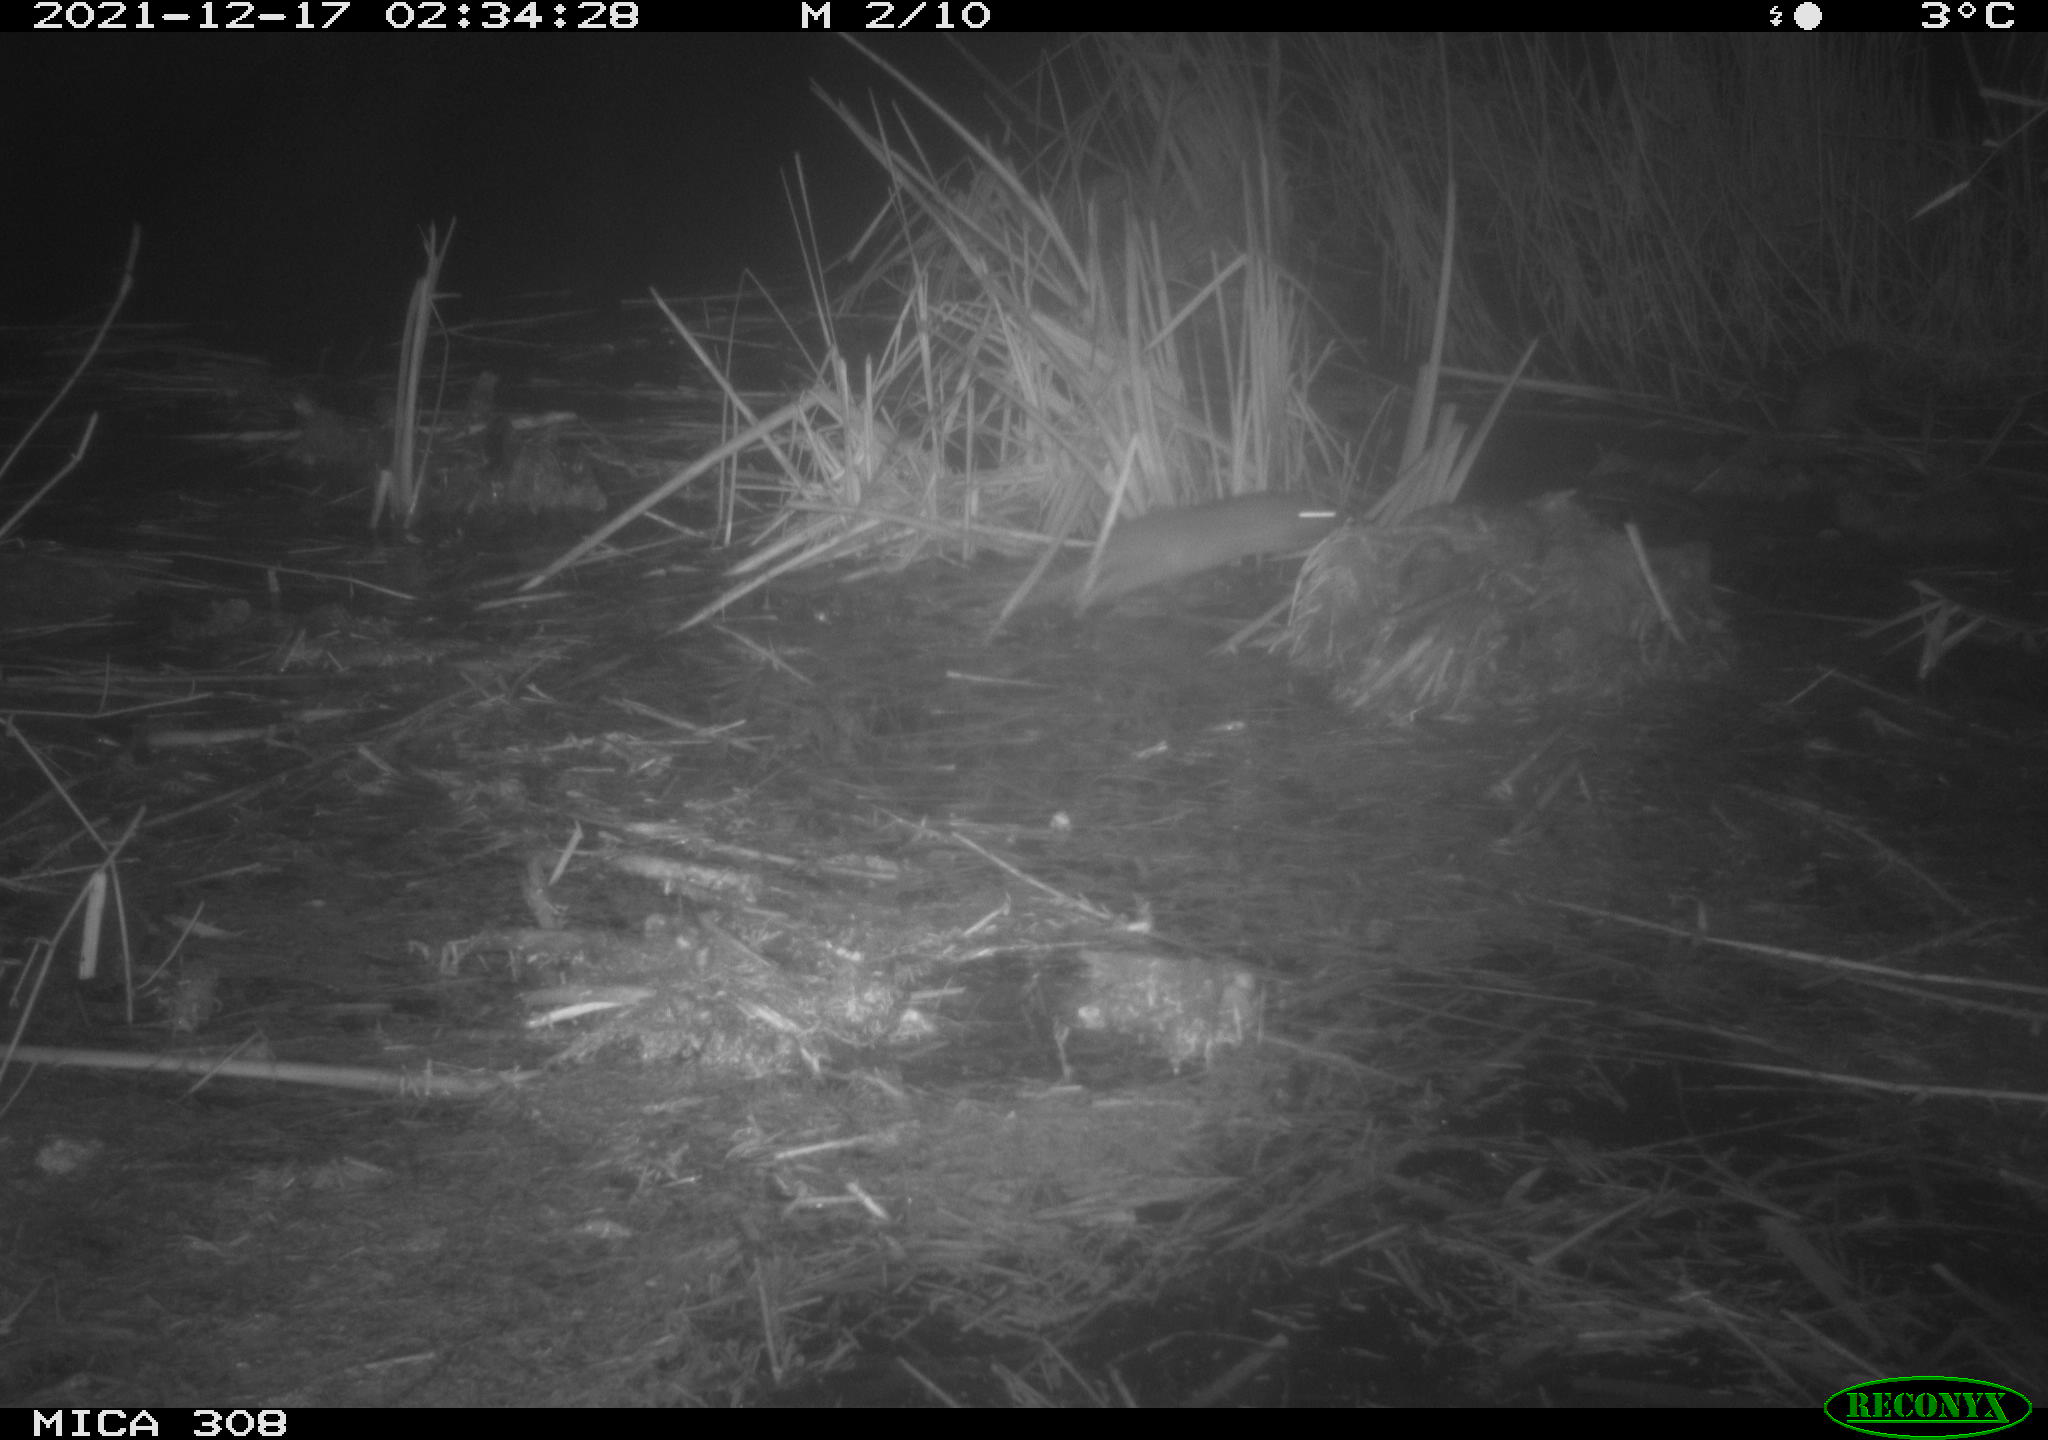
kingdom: Animalia
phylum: Chordata
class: Mammalia
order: Rodentia
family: Muridae
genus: Rattus
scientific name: Rattus norvegicus
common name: Brown rat
